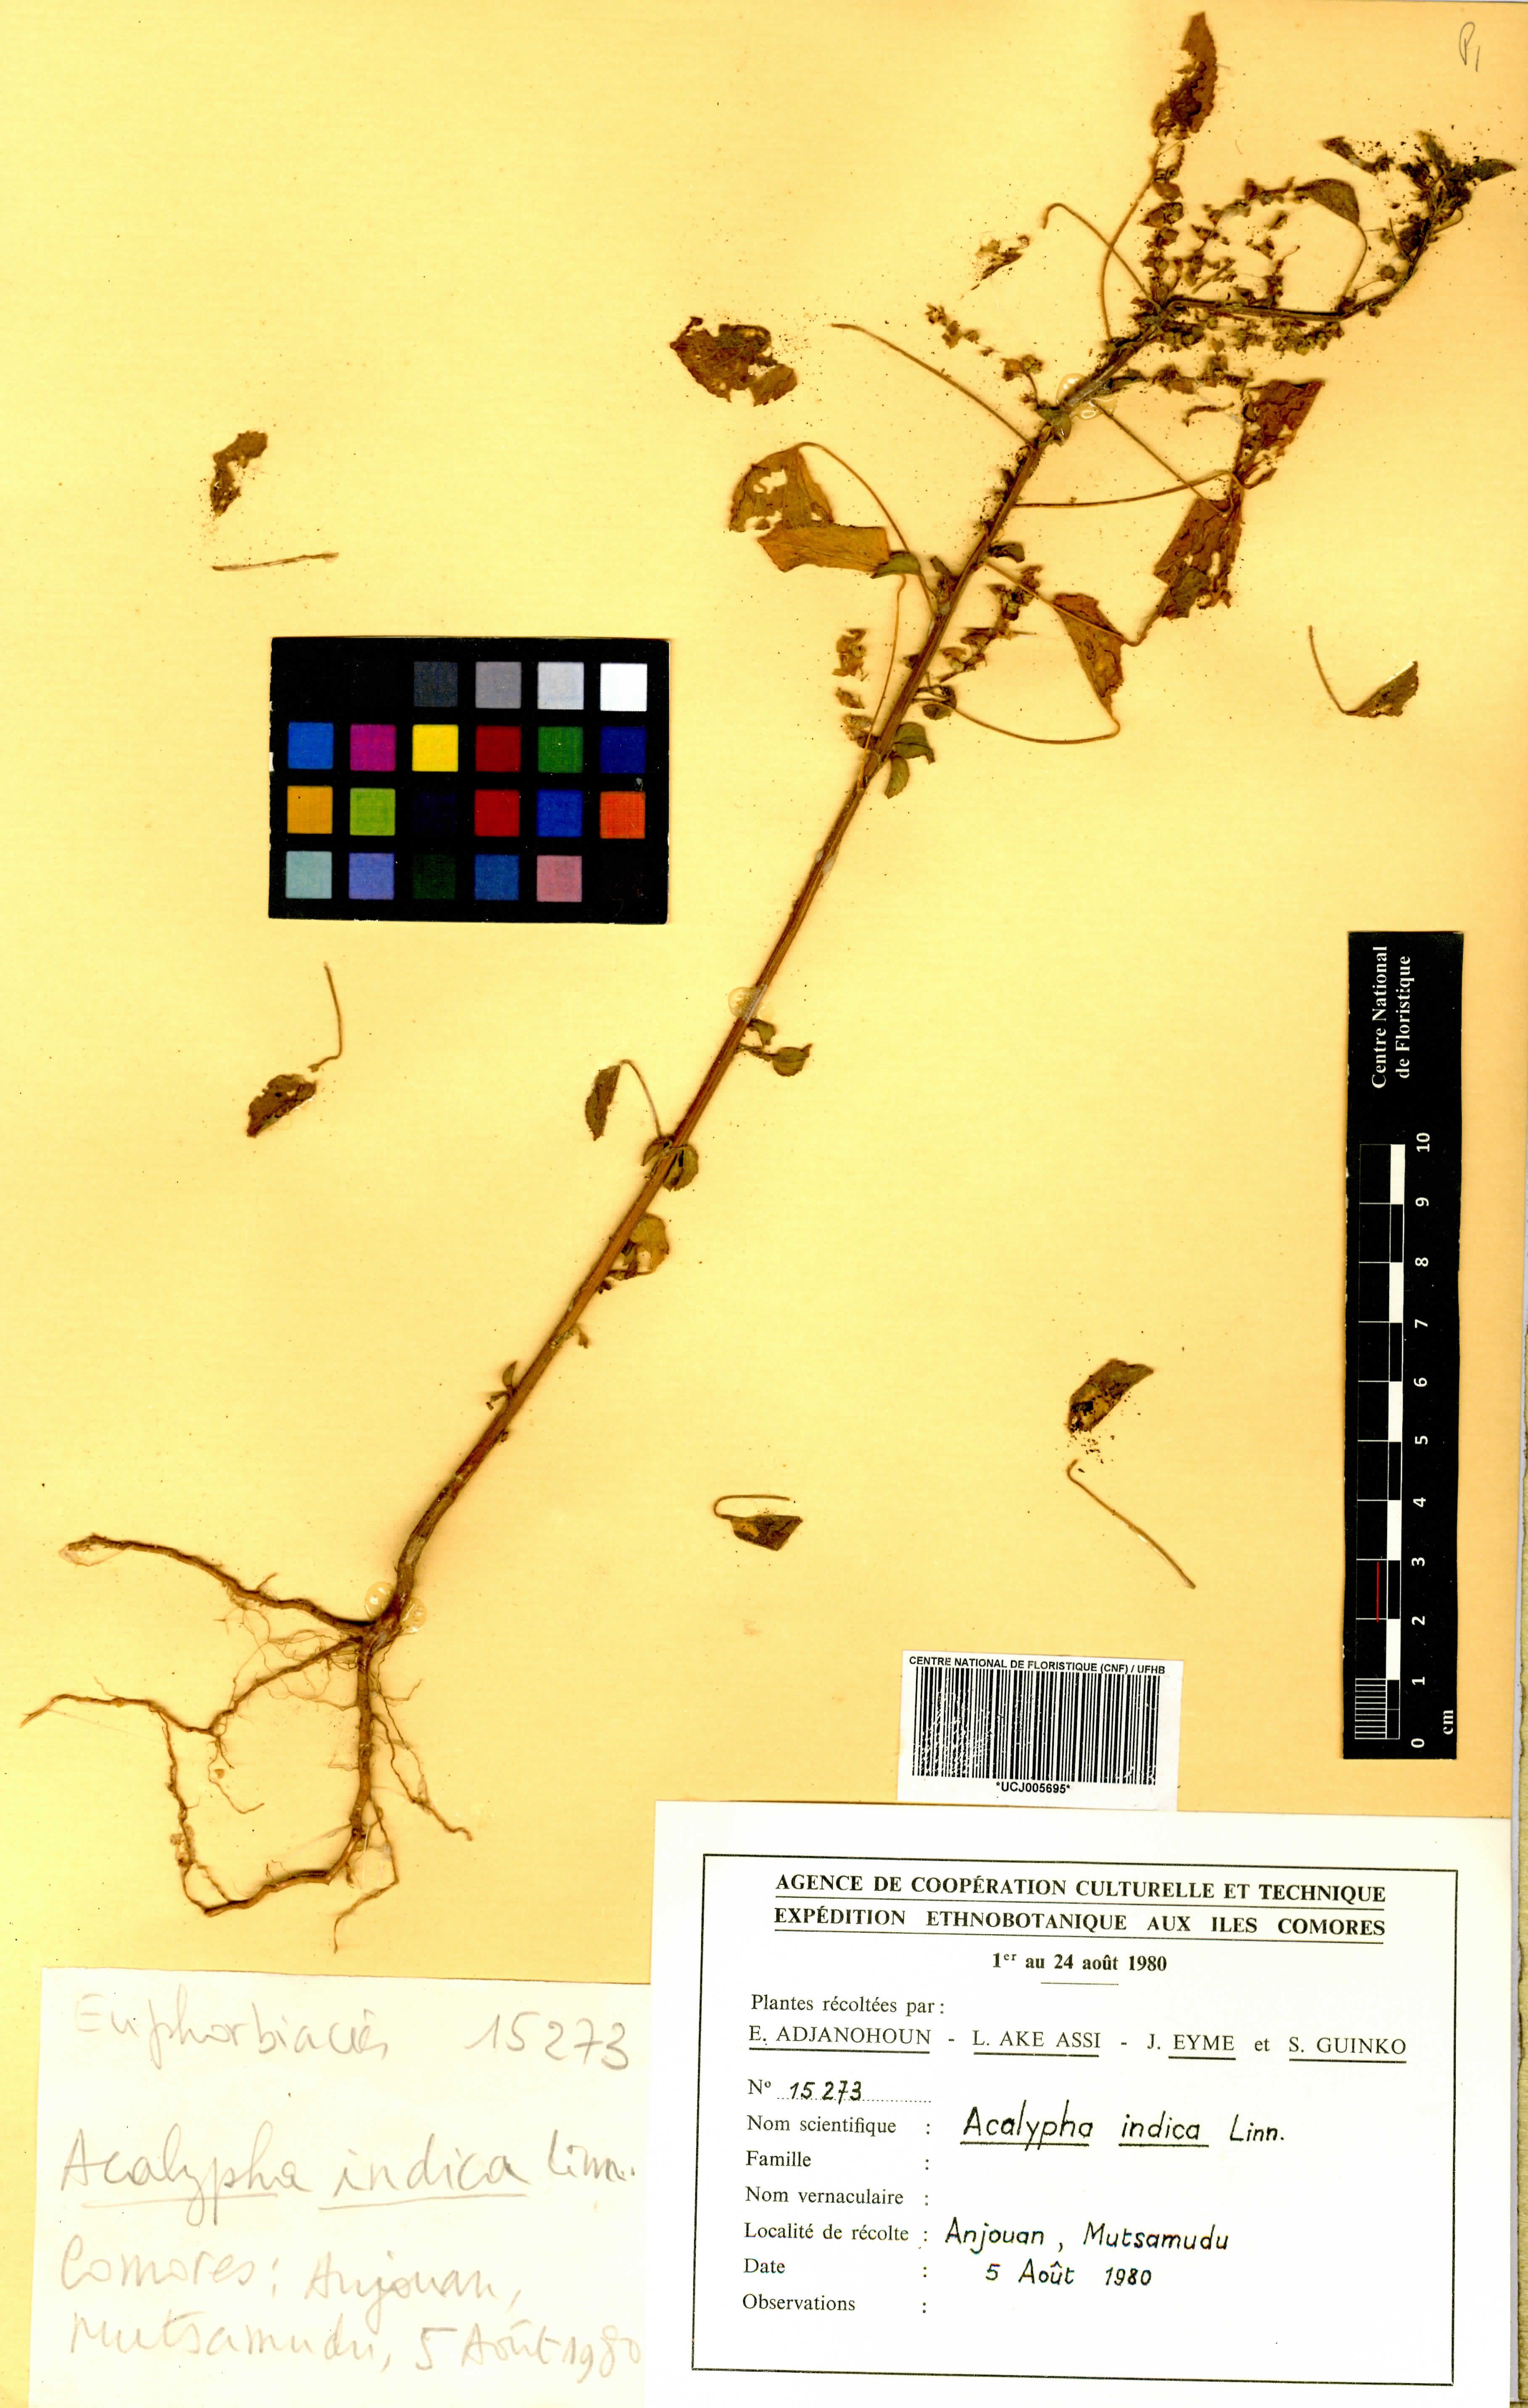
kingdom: Plantae
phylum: Tracheophyta
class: Magnoliopsida
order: Malpighiales
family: Euphorbiaceae
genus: Acalypha
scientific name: Acalypha indica
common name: Indian acalypha
